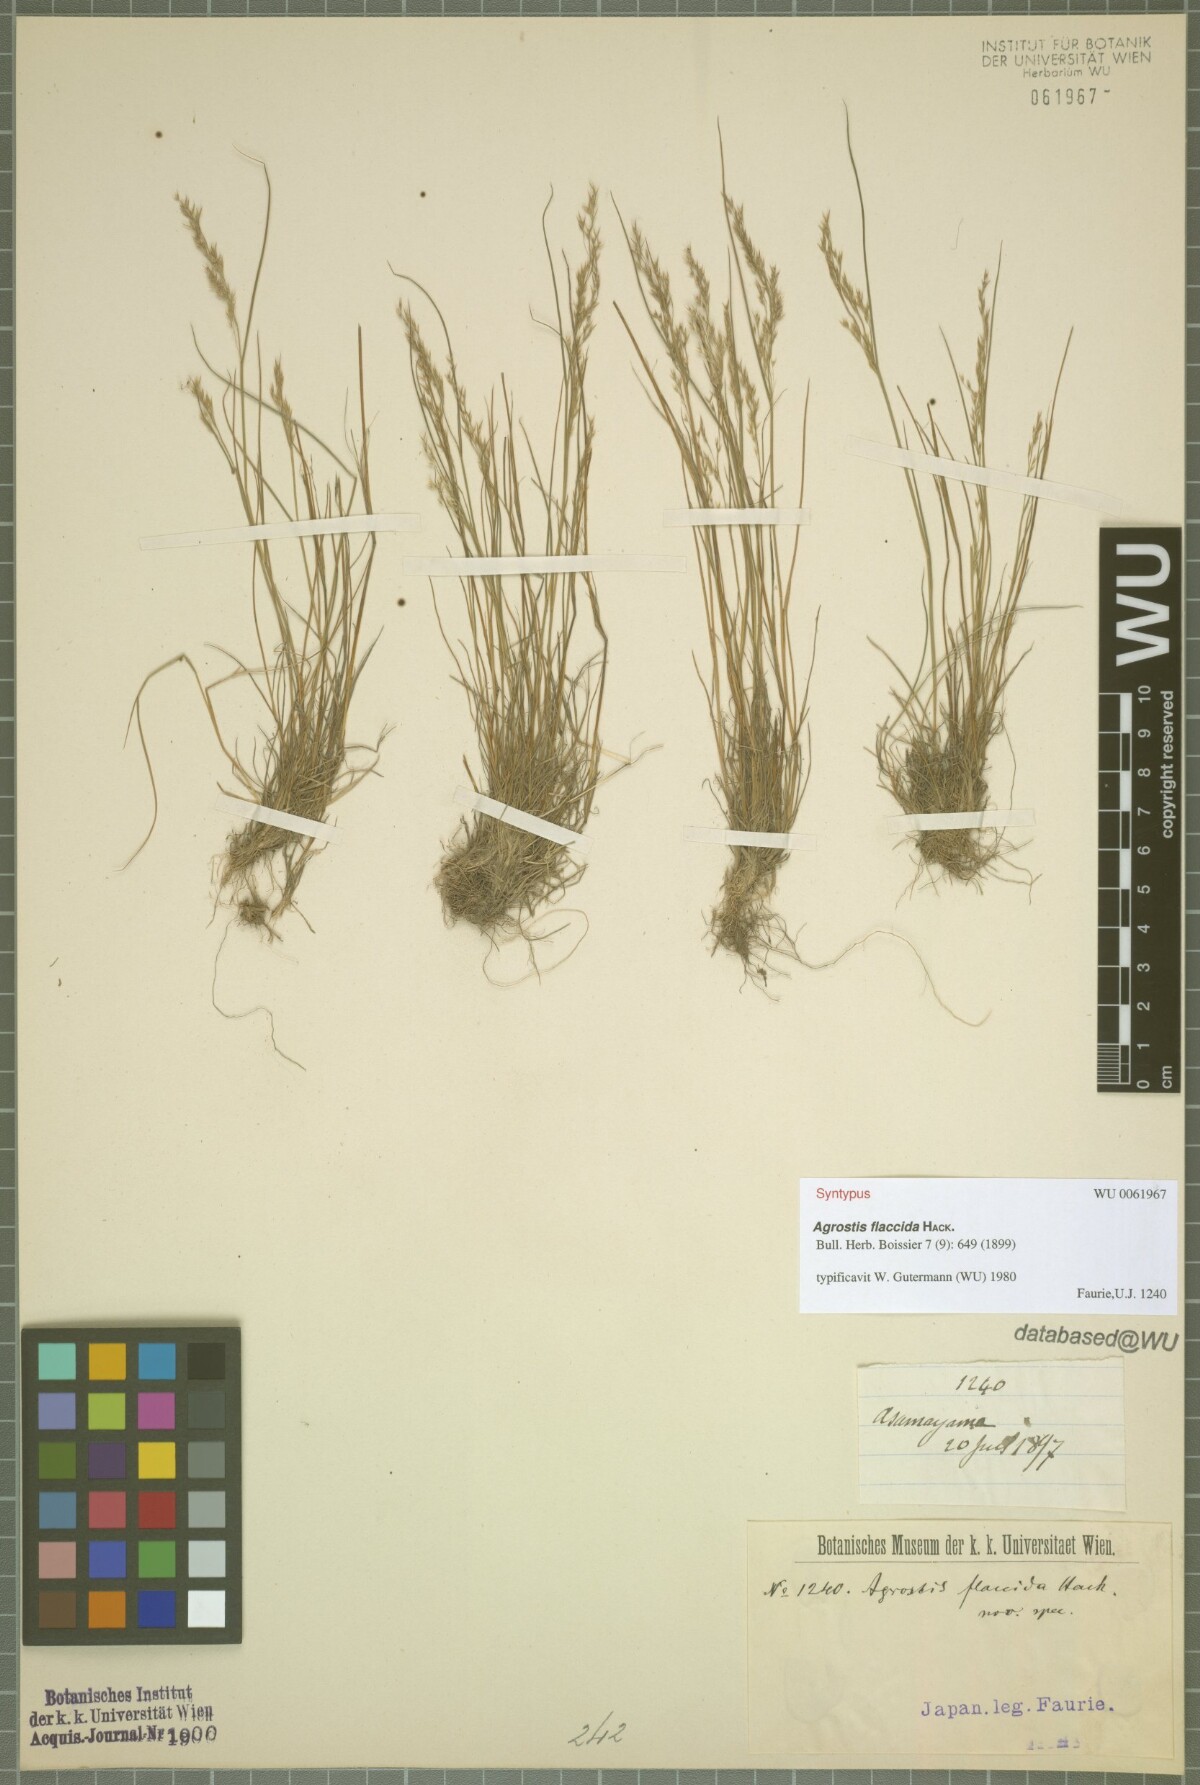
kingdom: Plantae
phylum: Tracheophyta
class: Liliopsida
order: Poales
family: Poaceae
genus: Agrostis
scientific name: Agrostis flaccida
